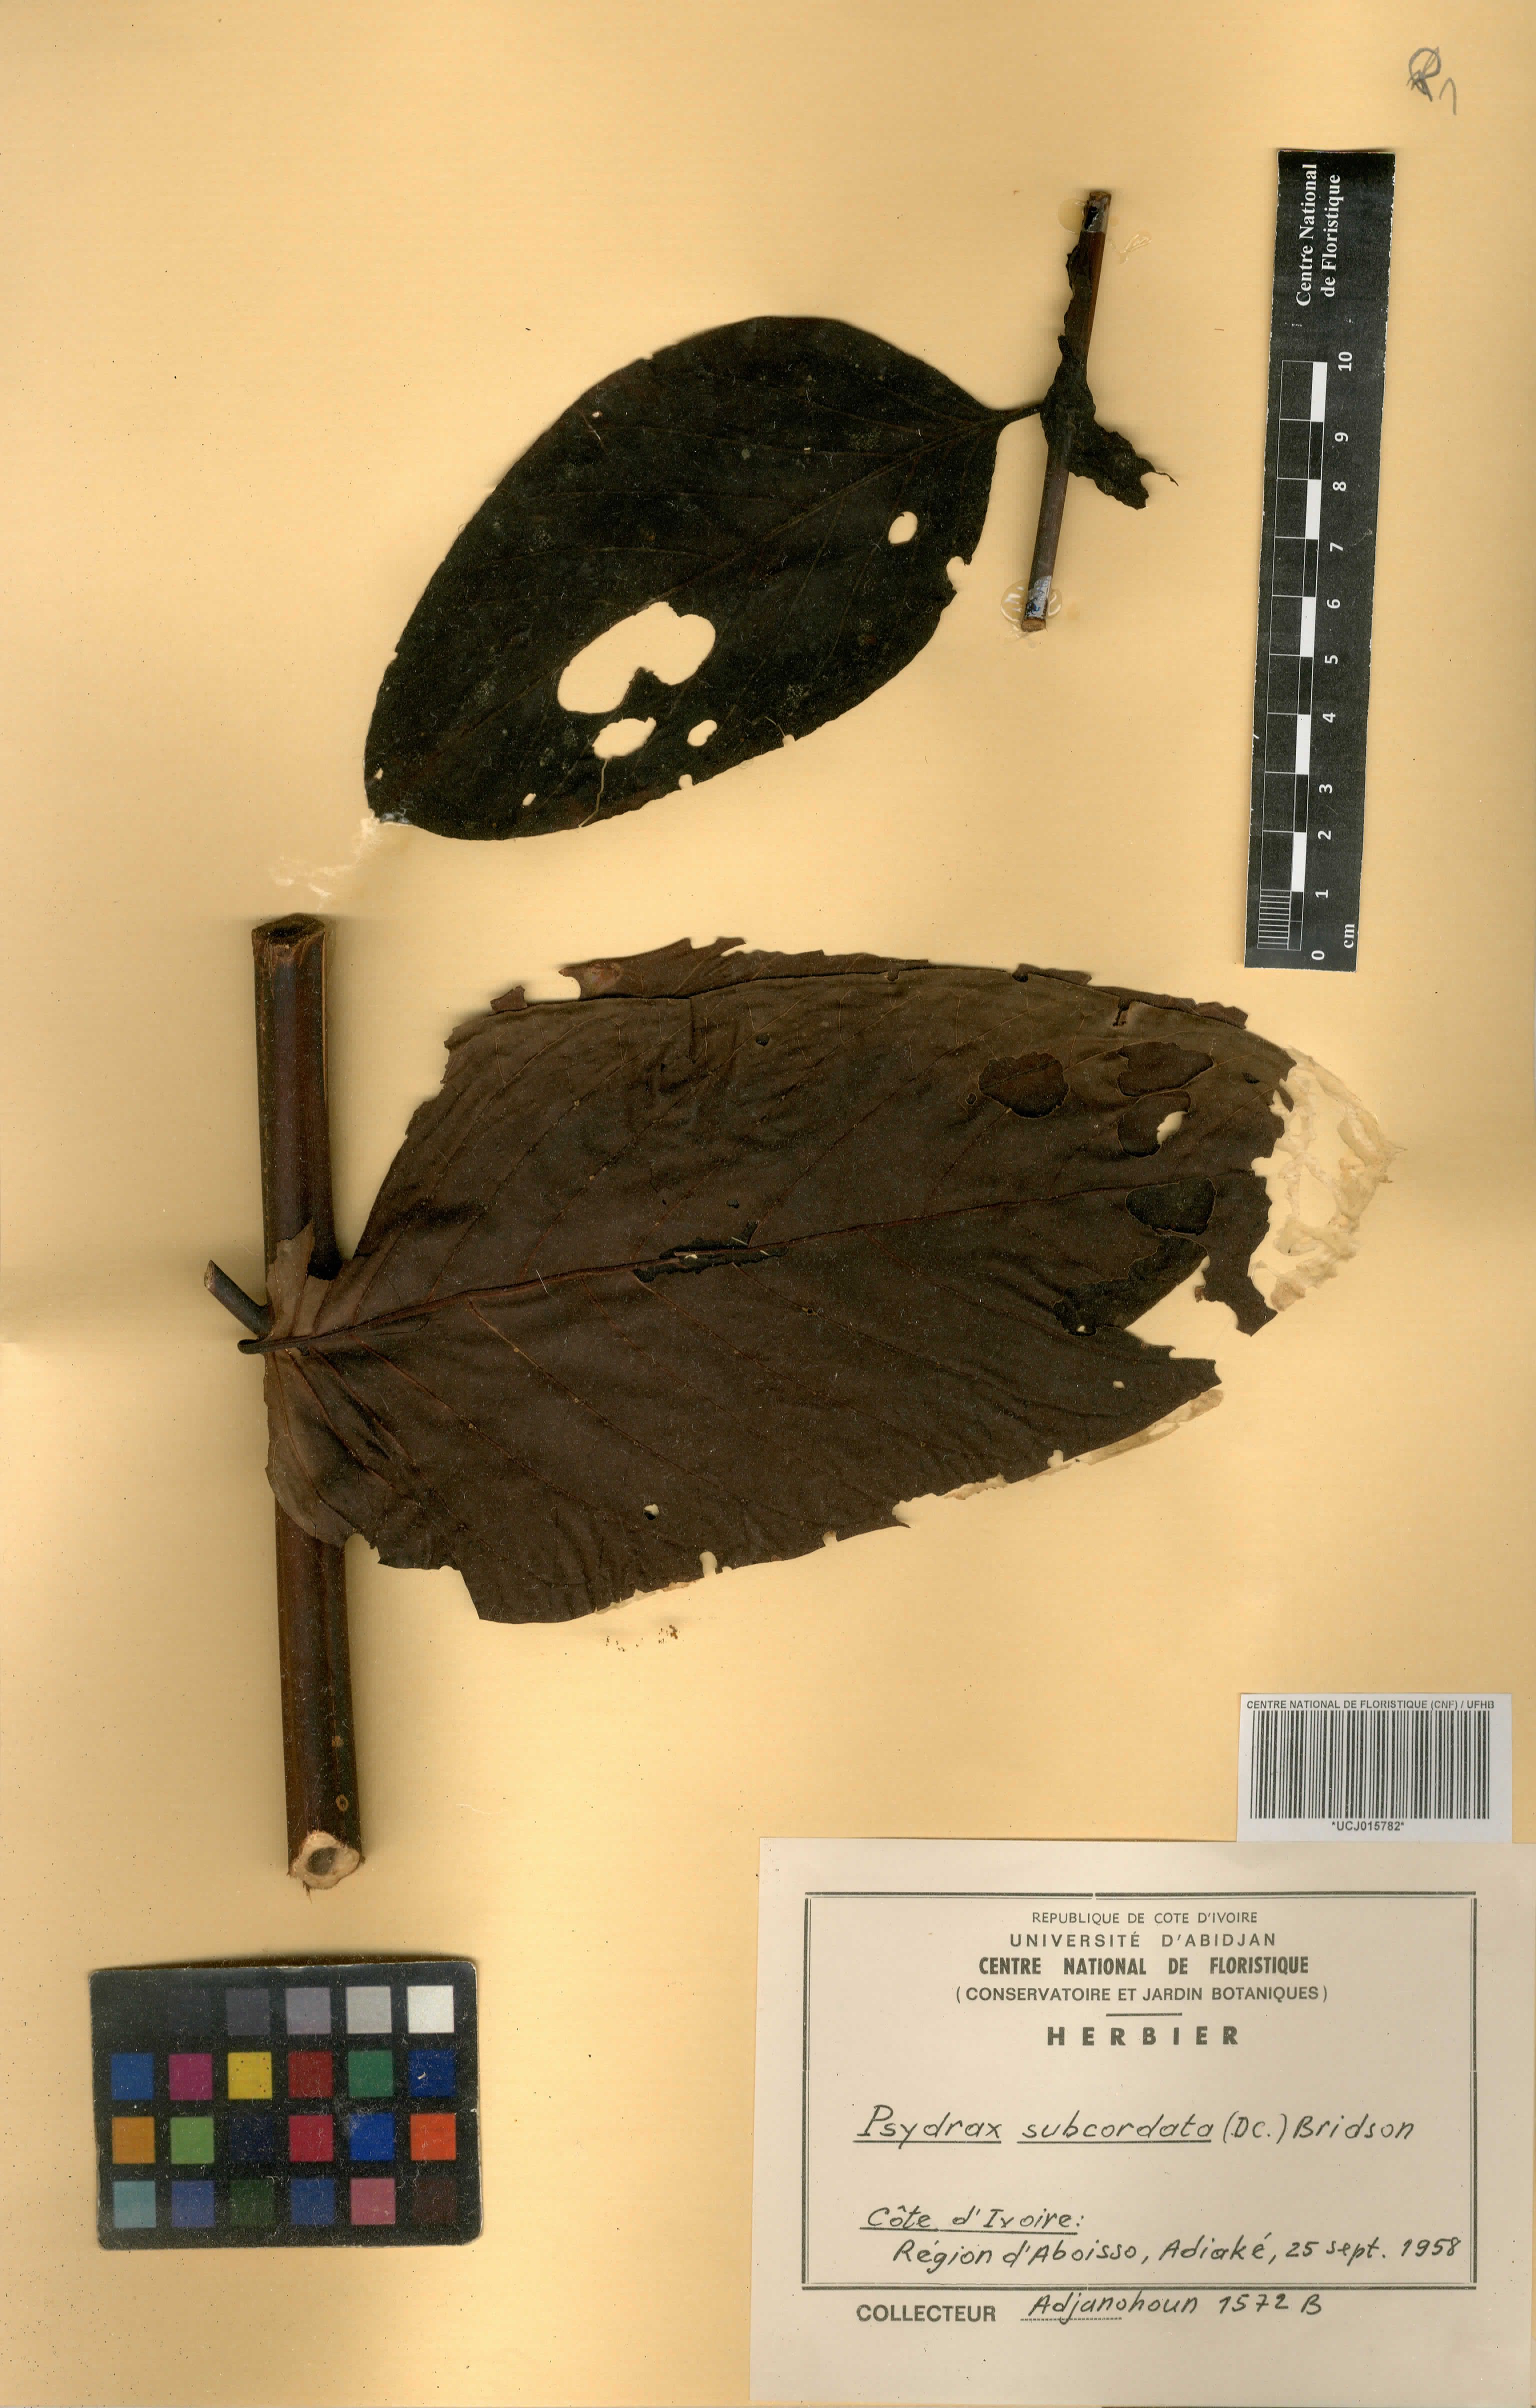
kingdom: Plantae
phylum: Tracheophyta
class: Magnoliopsida
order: Gentianales
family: Rubiaceae
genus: Psydrax
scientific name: Psydrax subcordatus
